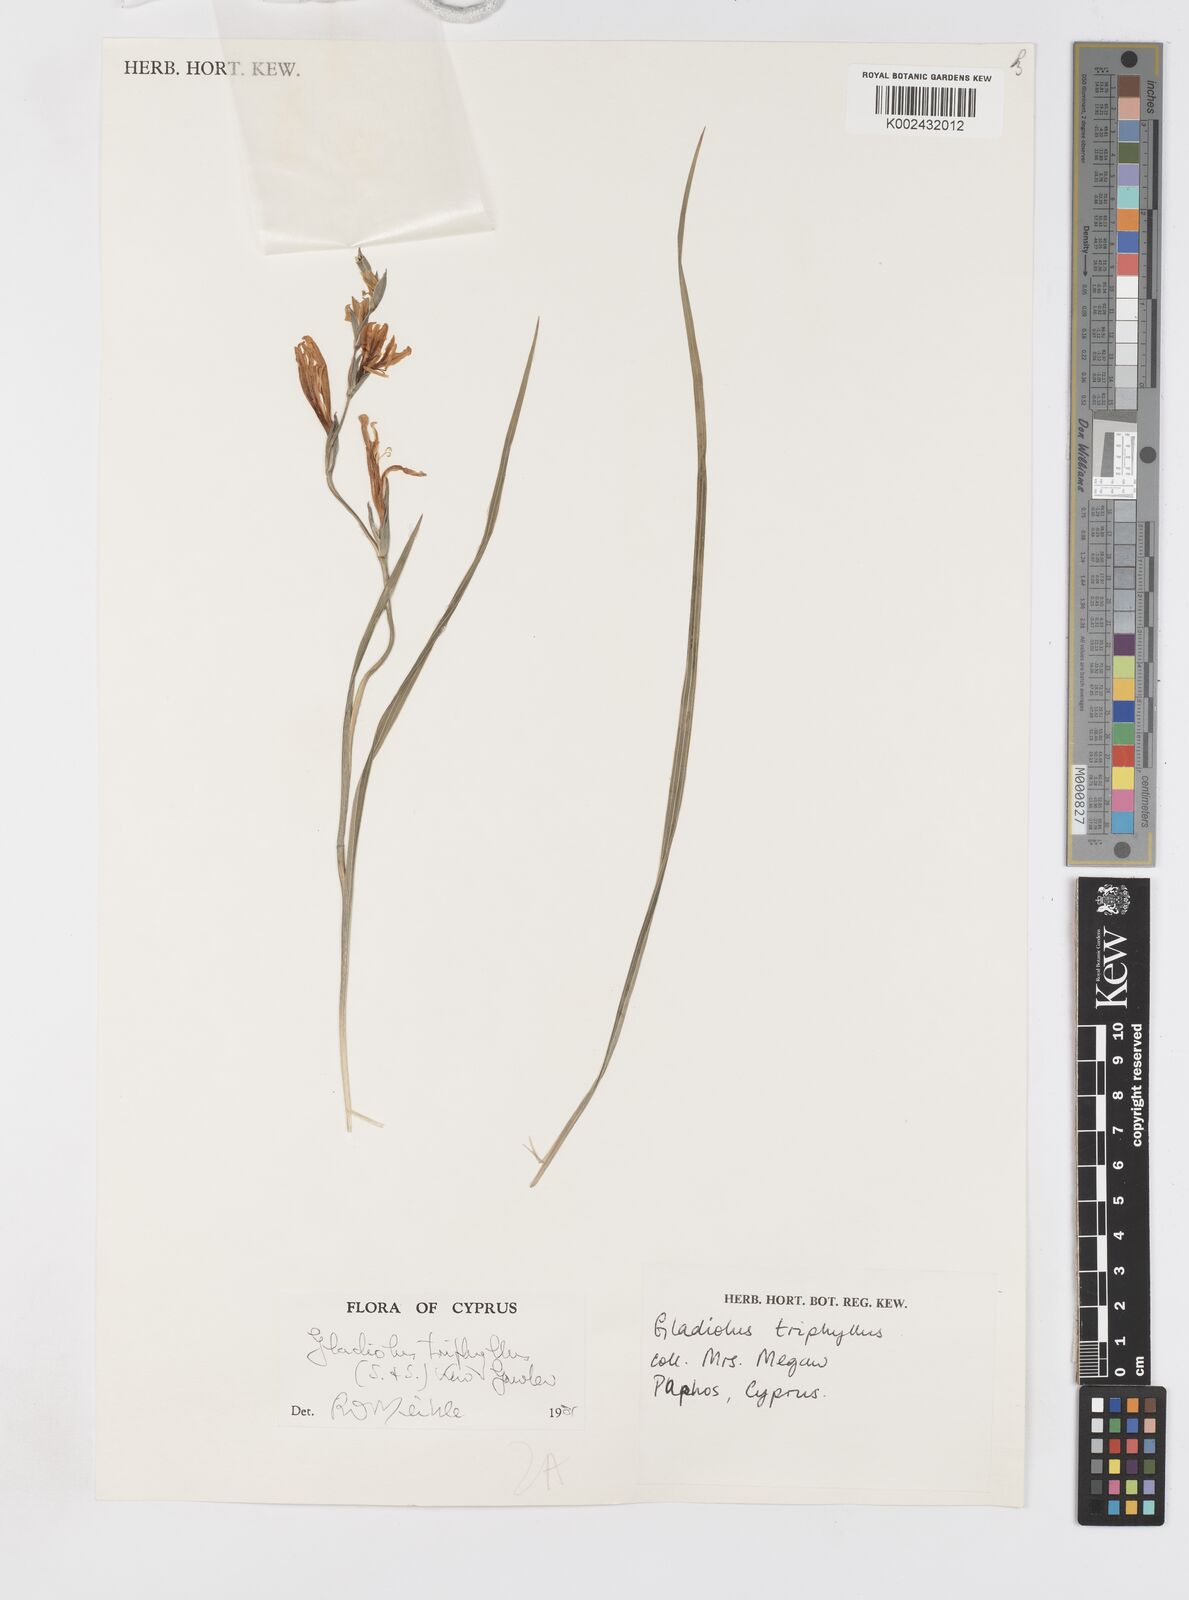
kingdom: Plantae
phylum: Tracheophyta
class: Liliopsida
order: Asparagales
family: Iridaceae
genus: Gladiolus
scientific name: Gladiolus triphyllus
